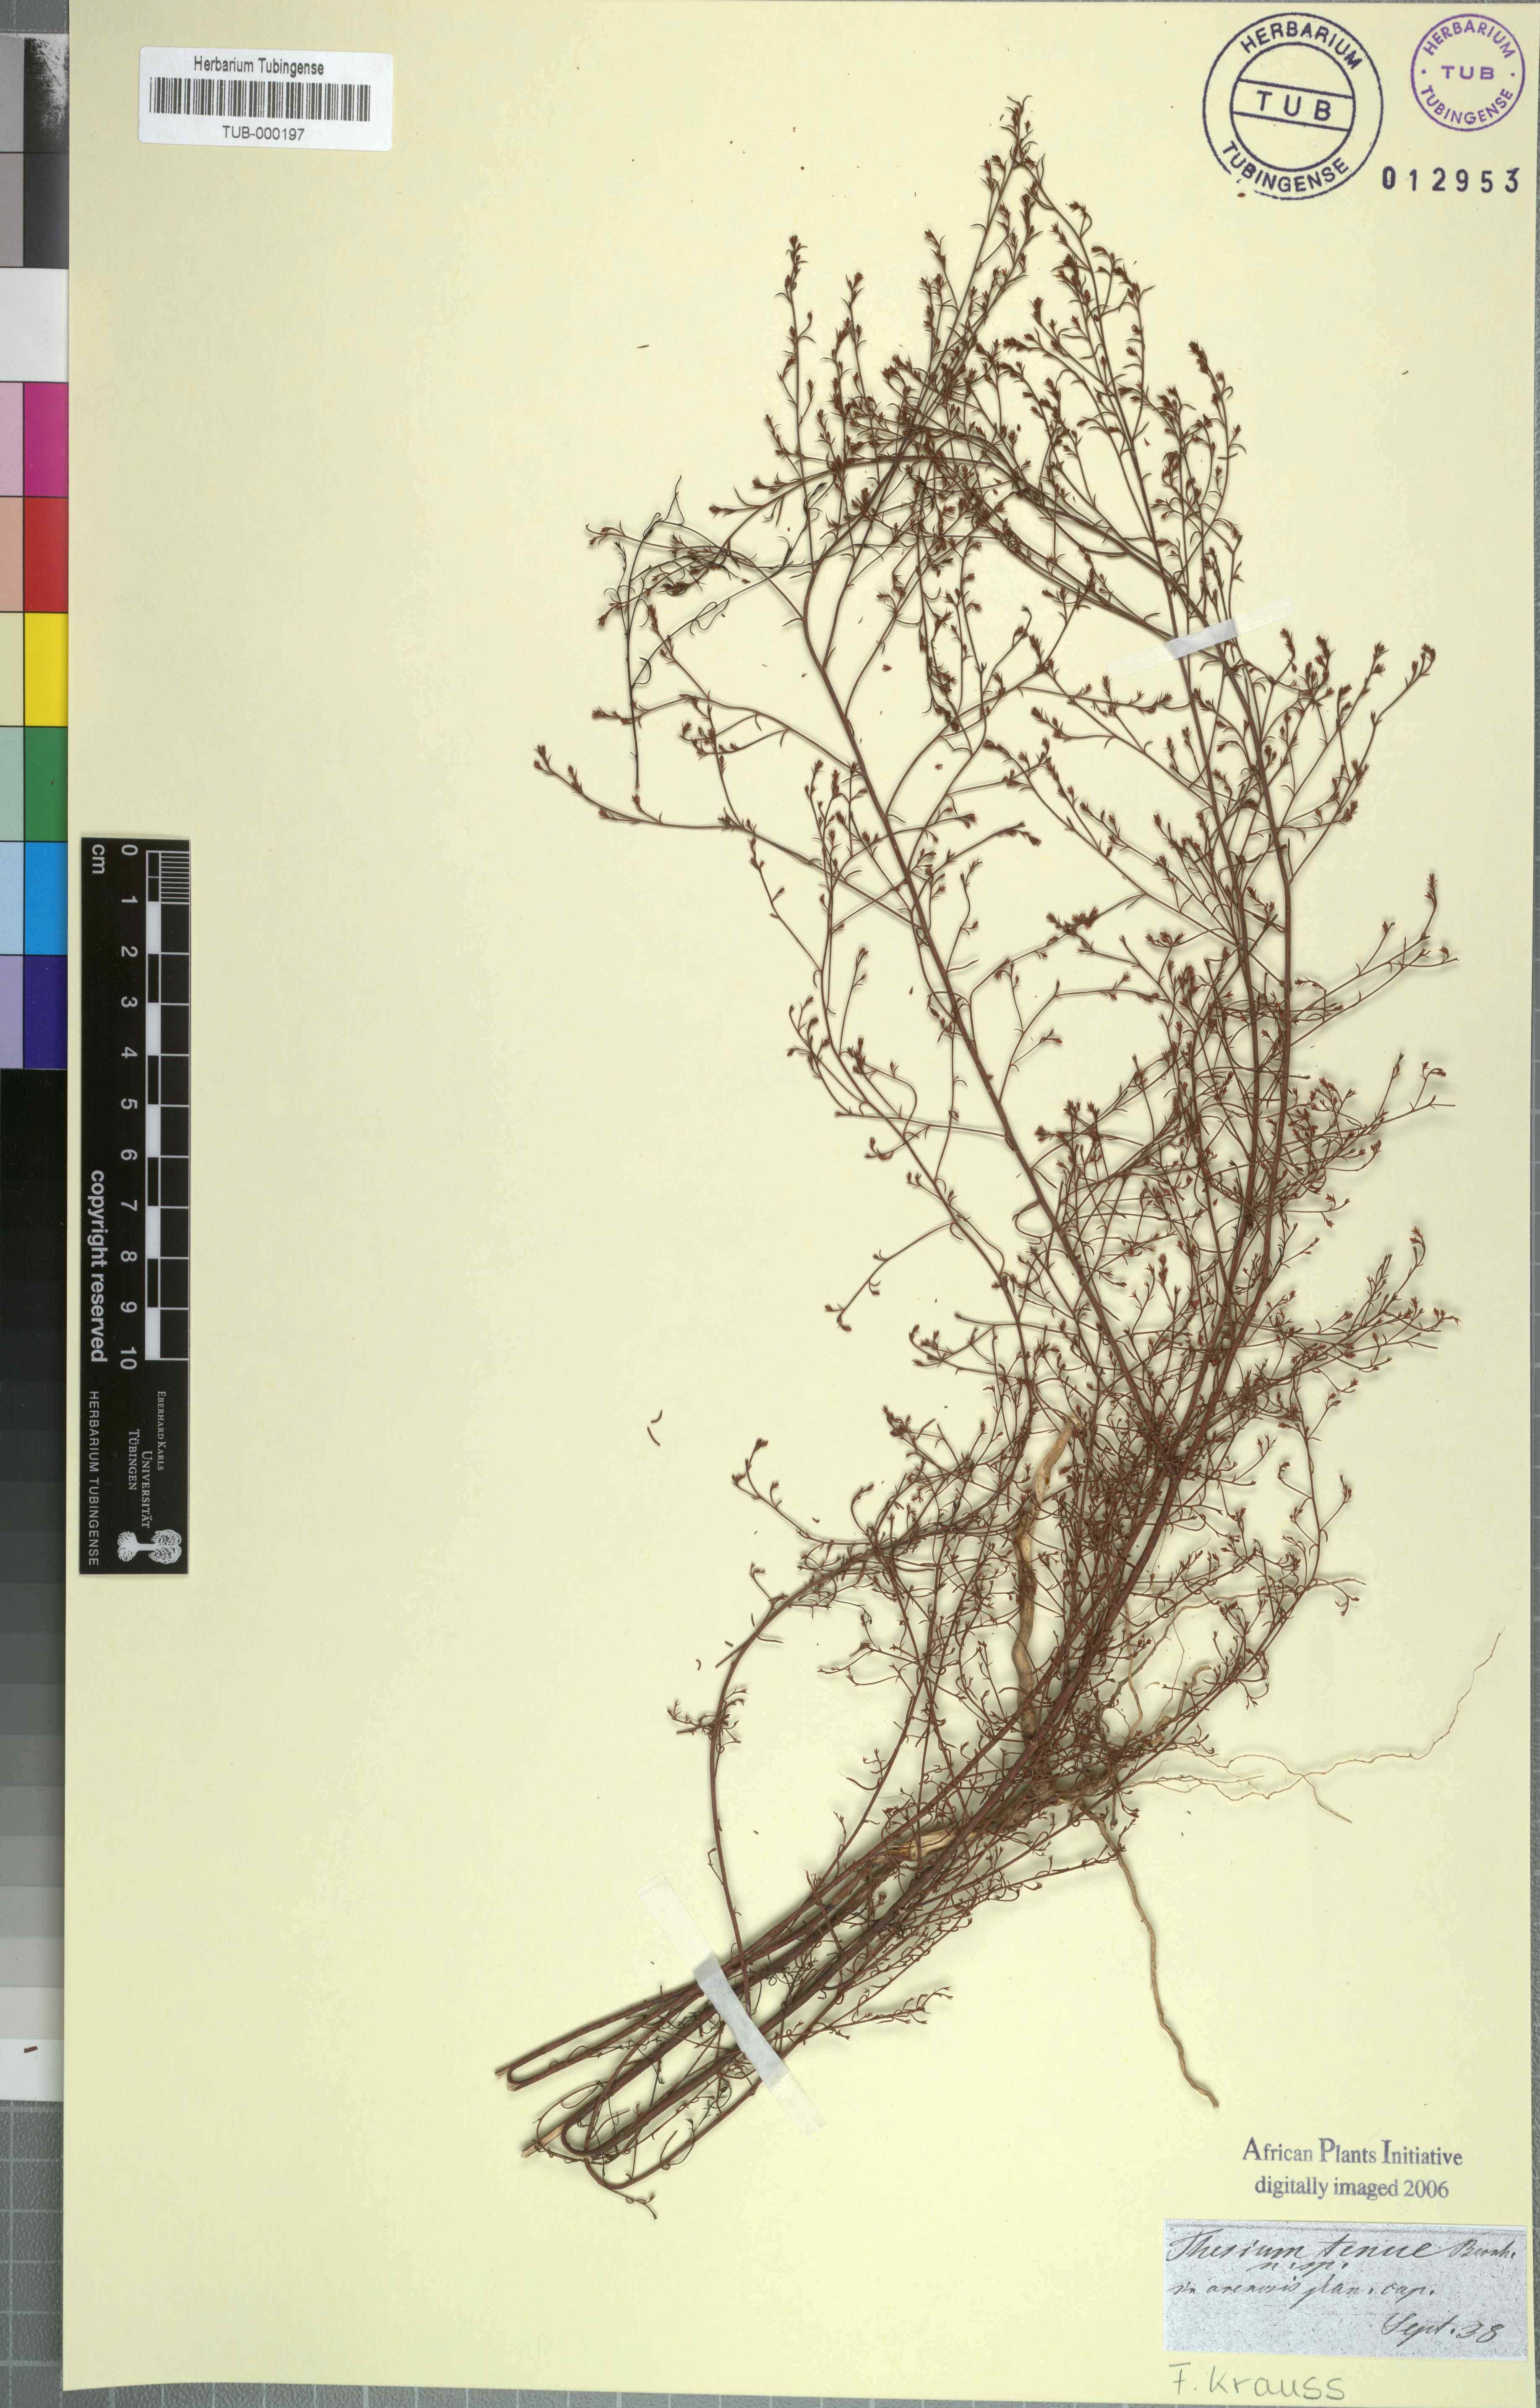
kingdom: Plantae
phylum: Tracheophyta
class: Magnoliopsida
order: Santalales
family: Thesiaceae
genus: Thesium
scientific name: Thesium juncifolium
